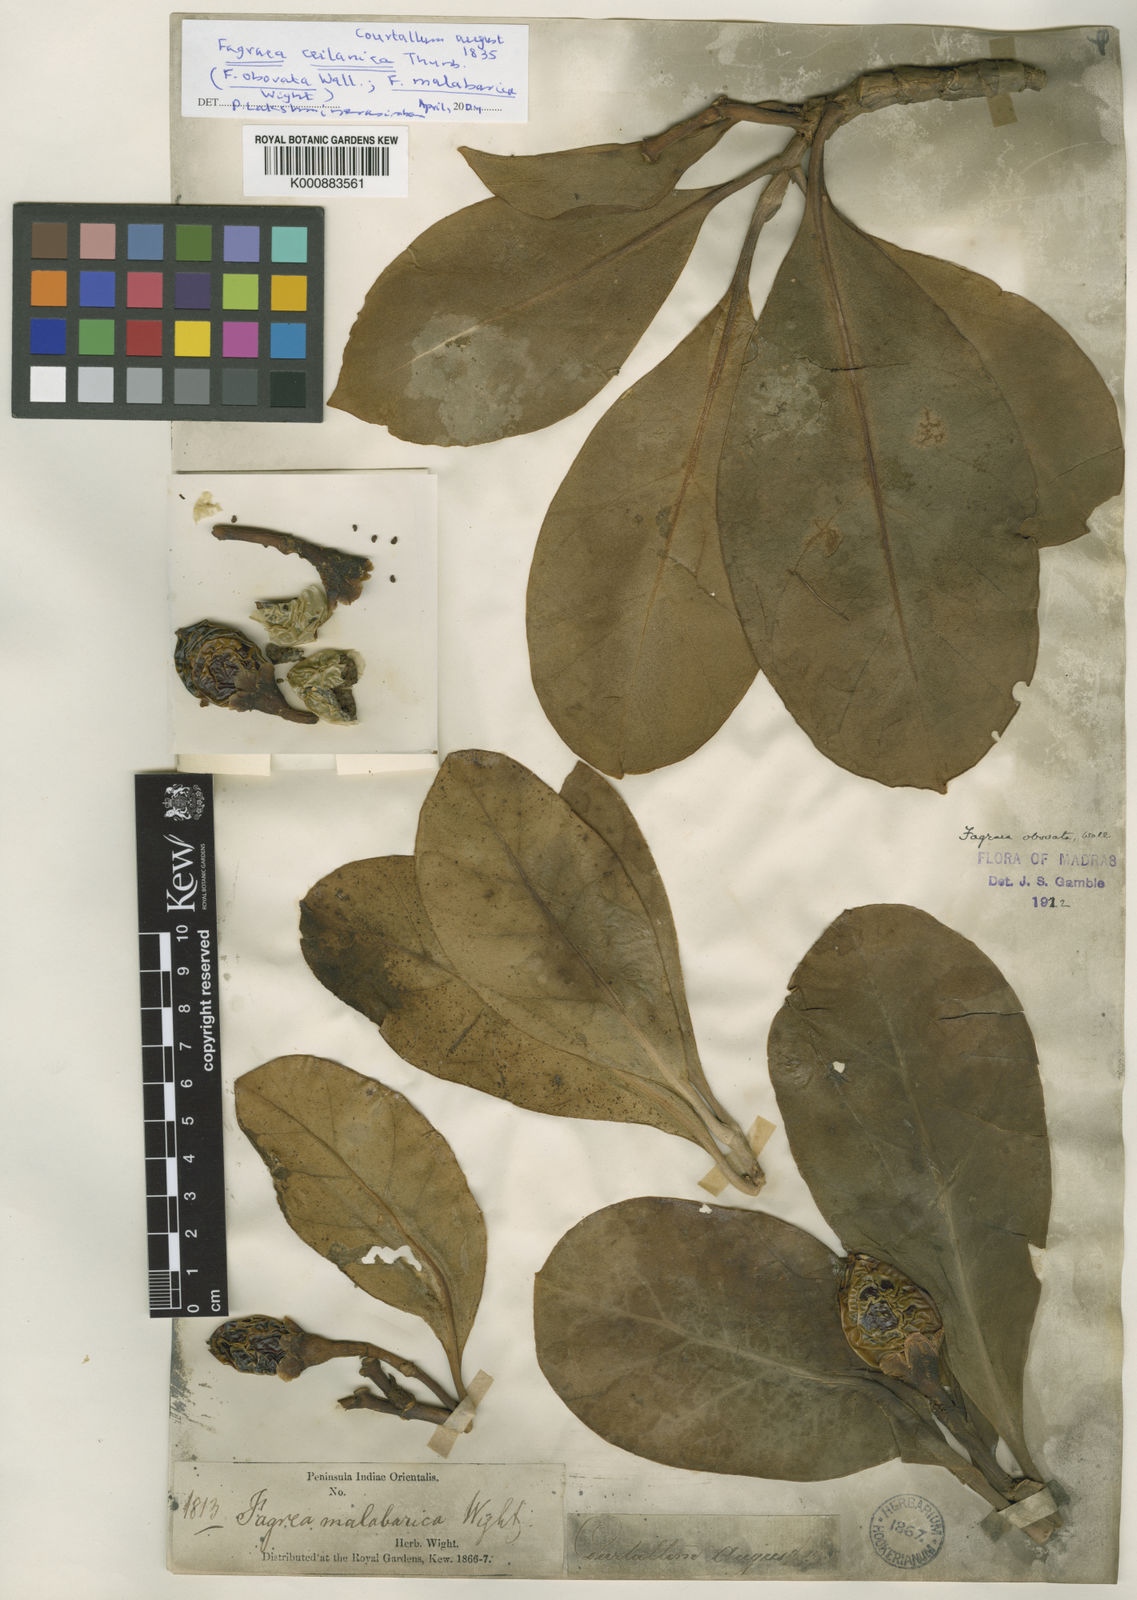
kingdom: Plantae
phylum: Tracheophyta
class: Magnoliopsida
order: Gentianales
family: Gentianaceae
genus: Fagraea
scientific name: Fagraea ceilanica
